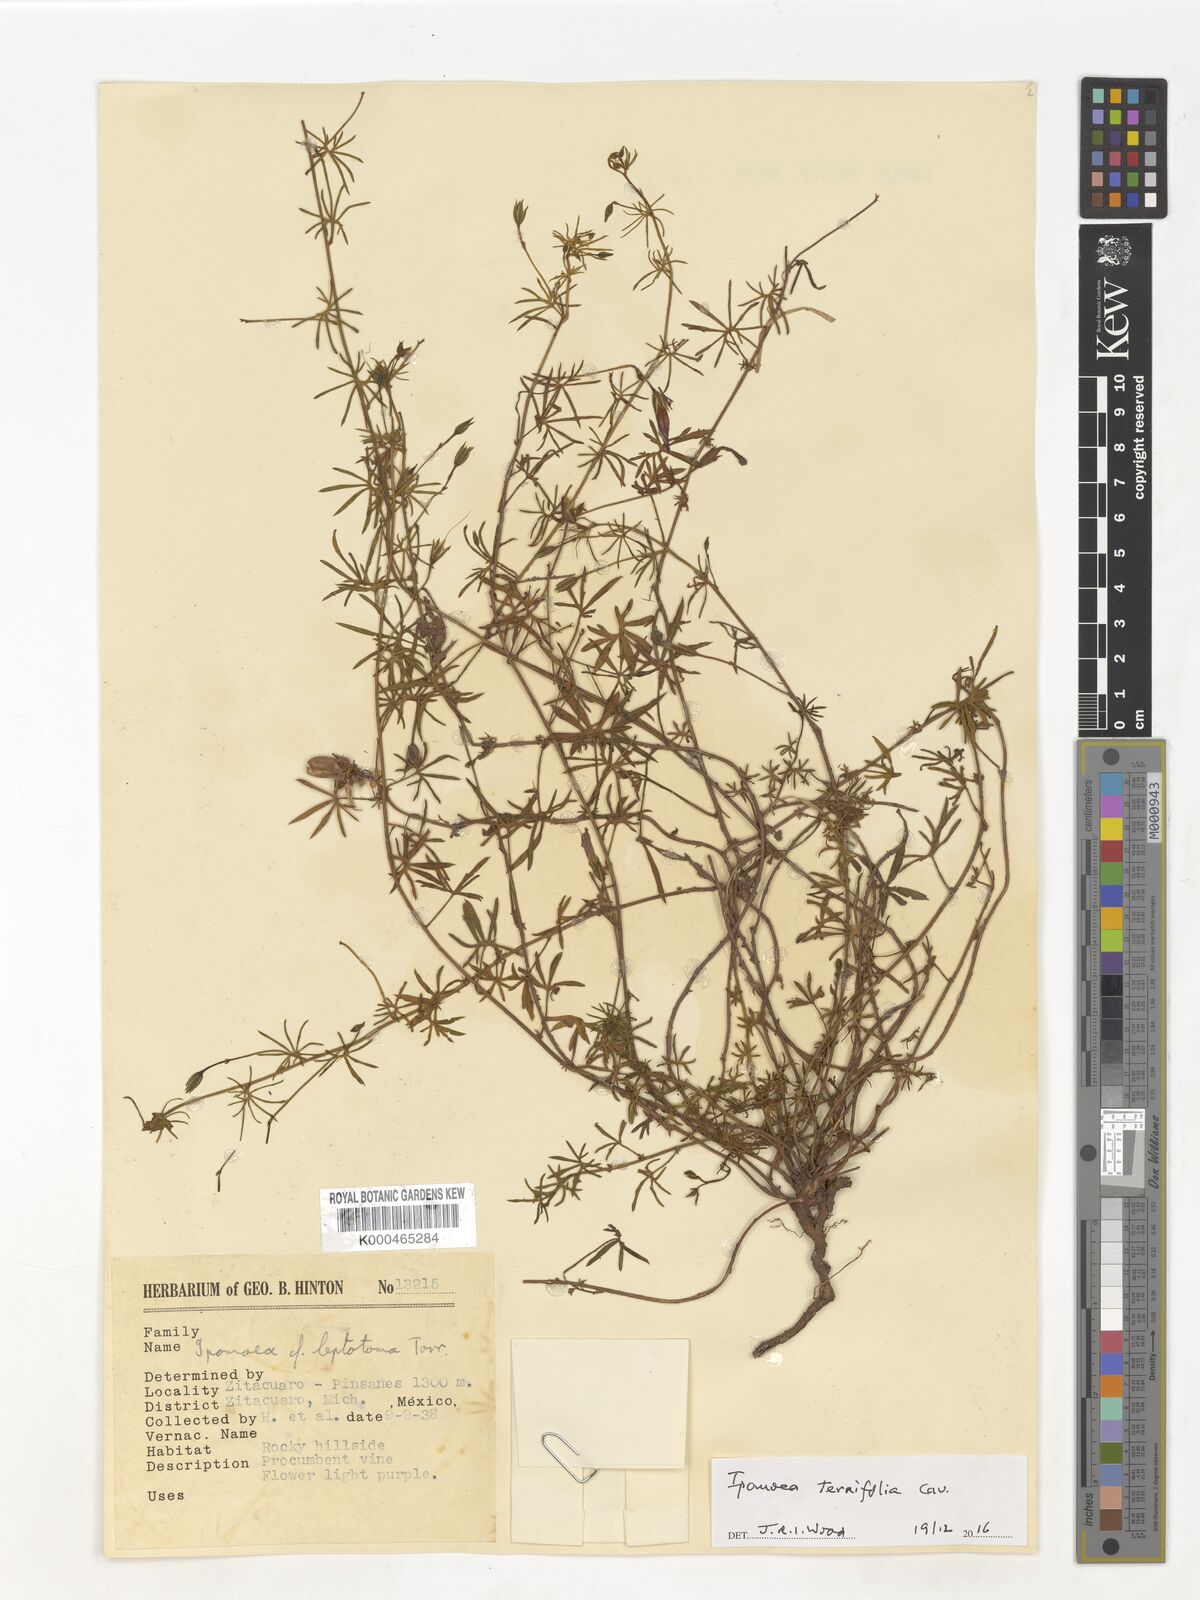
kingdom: Plantae
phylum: Tracheophyta
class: Magnoliopsida
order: Solanales
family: Convolvulaceae
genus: Ipomoea
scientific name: Ipomoea ternifolia
